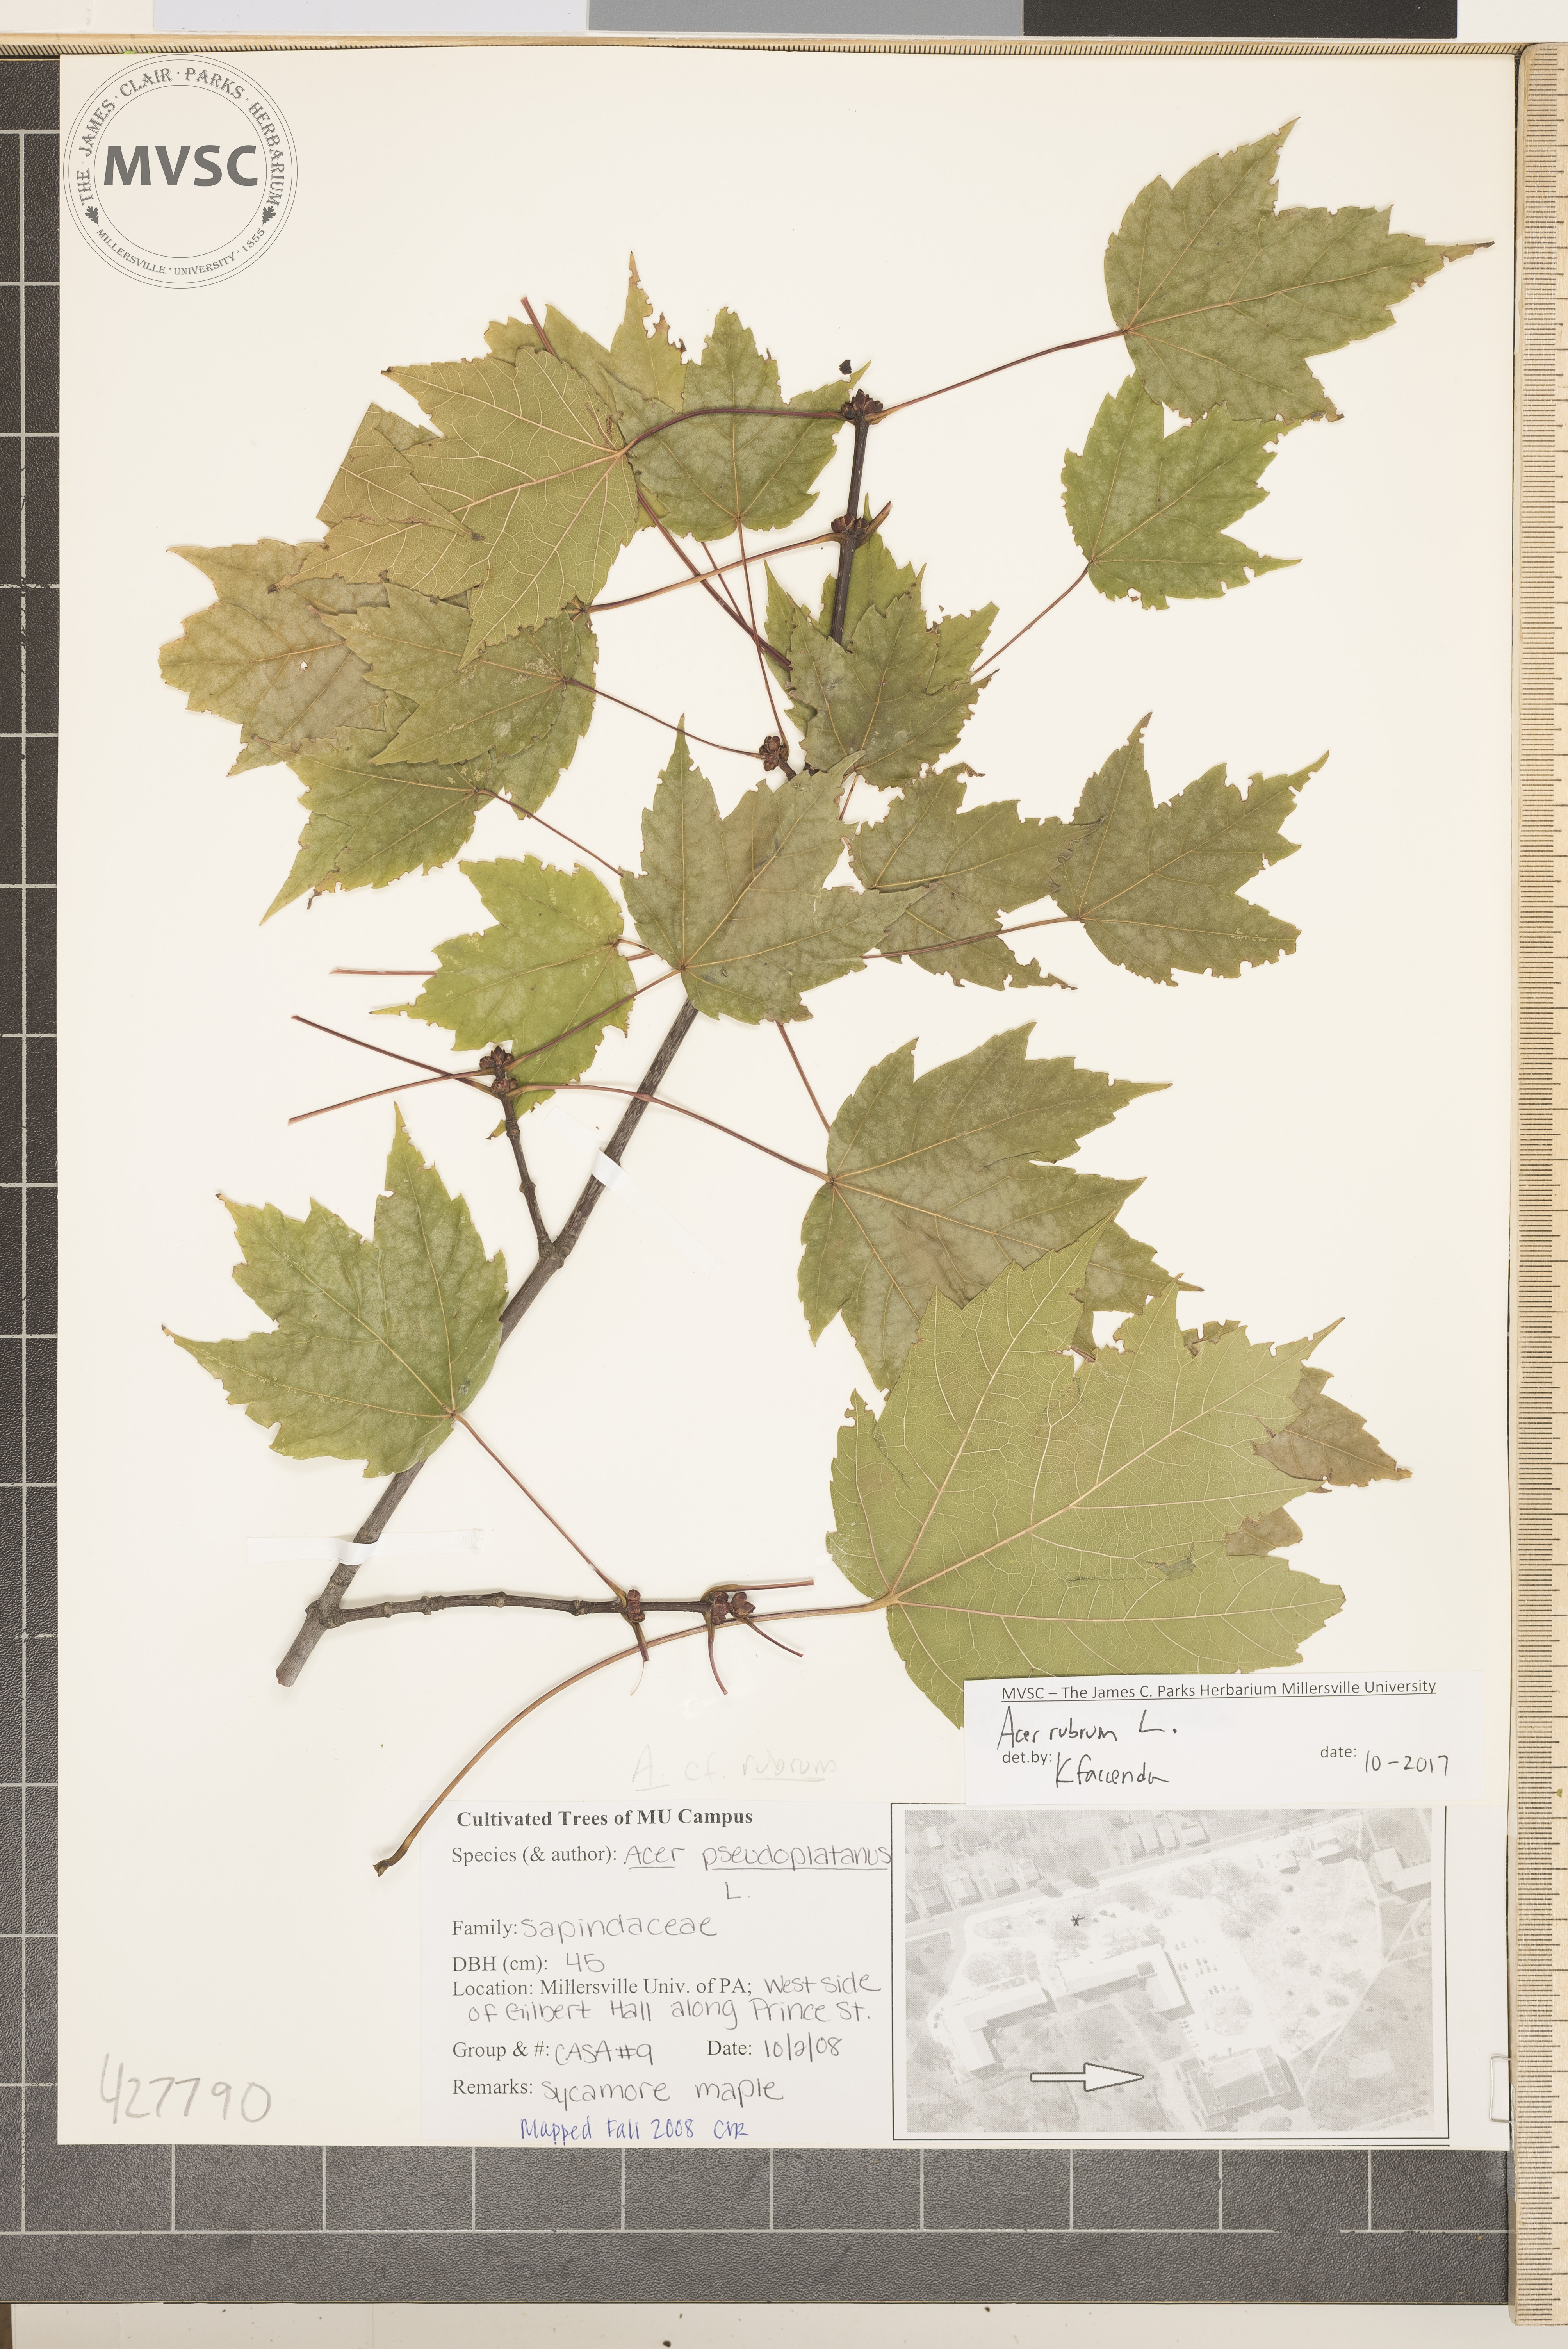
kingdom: Plantae
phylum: Tracheophyta
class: Magnoliopsida
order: Sapindales
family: Sapindaceae
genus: Acer
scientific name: Acer rubrum
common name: Red maple
